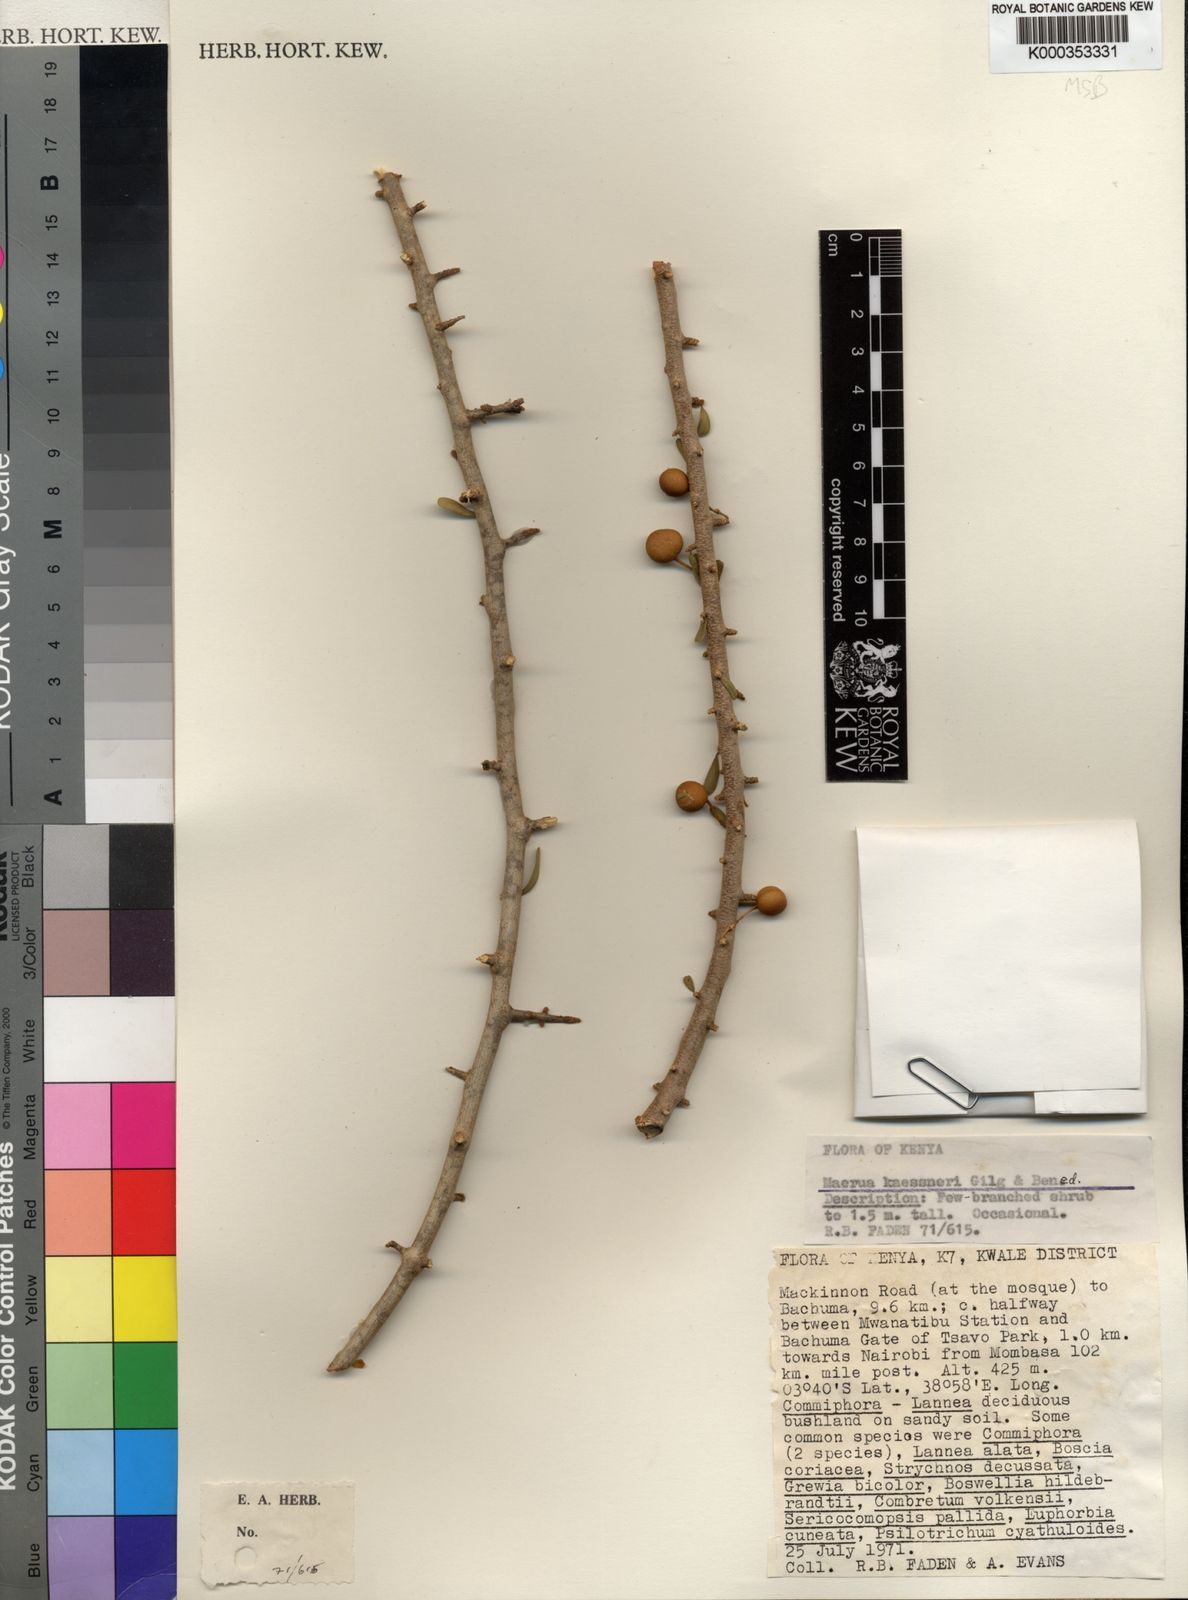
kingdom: Plantae
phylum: Tracheophyta
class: Magnoliopsida
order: Brassicales
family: Capparaceae
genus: Maerua
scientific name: Maerua kaessneri
